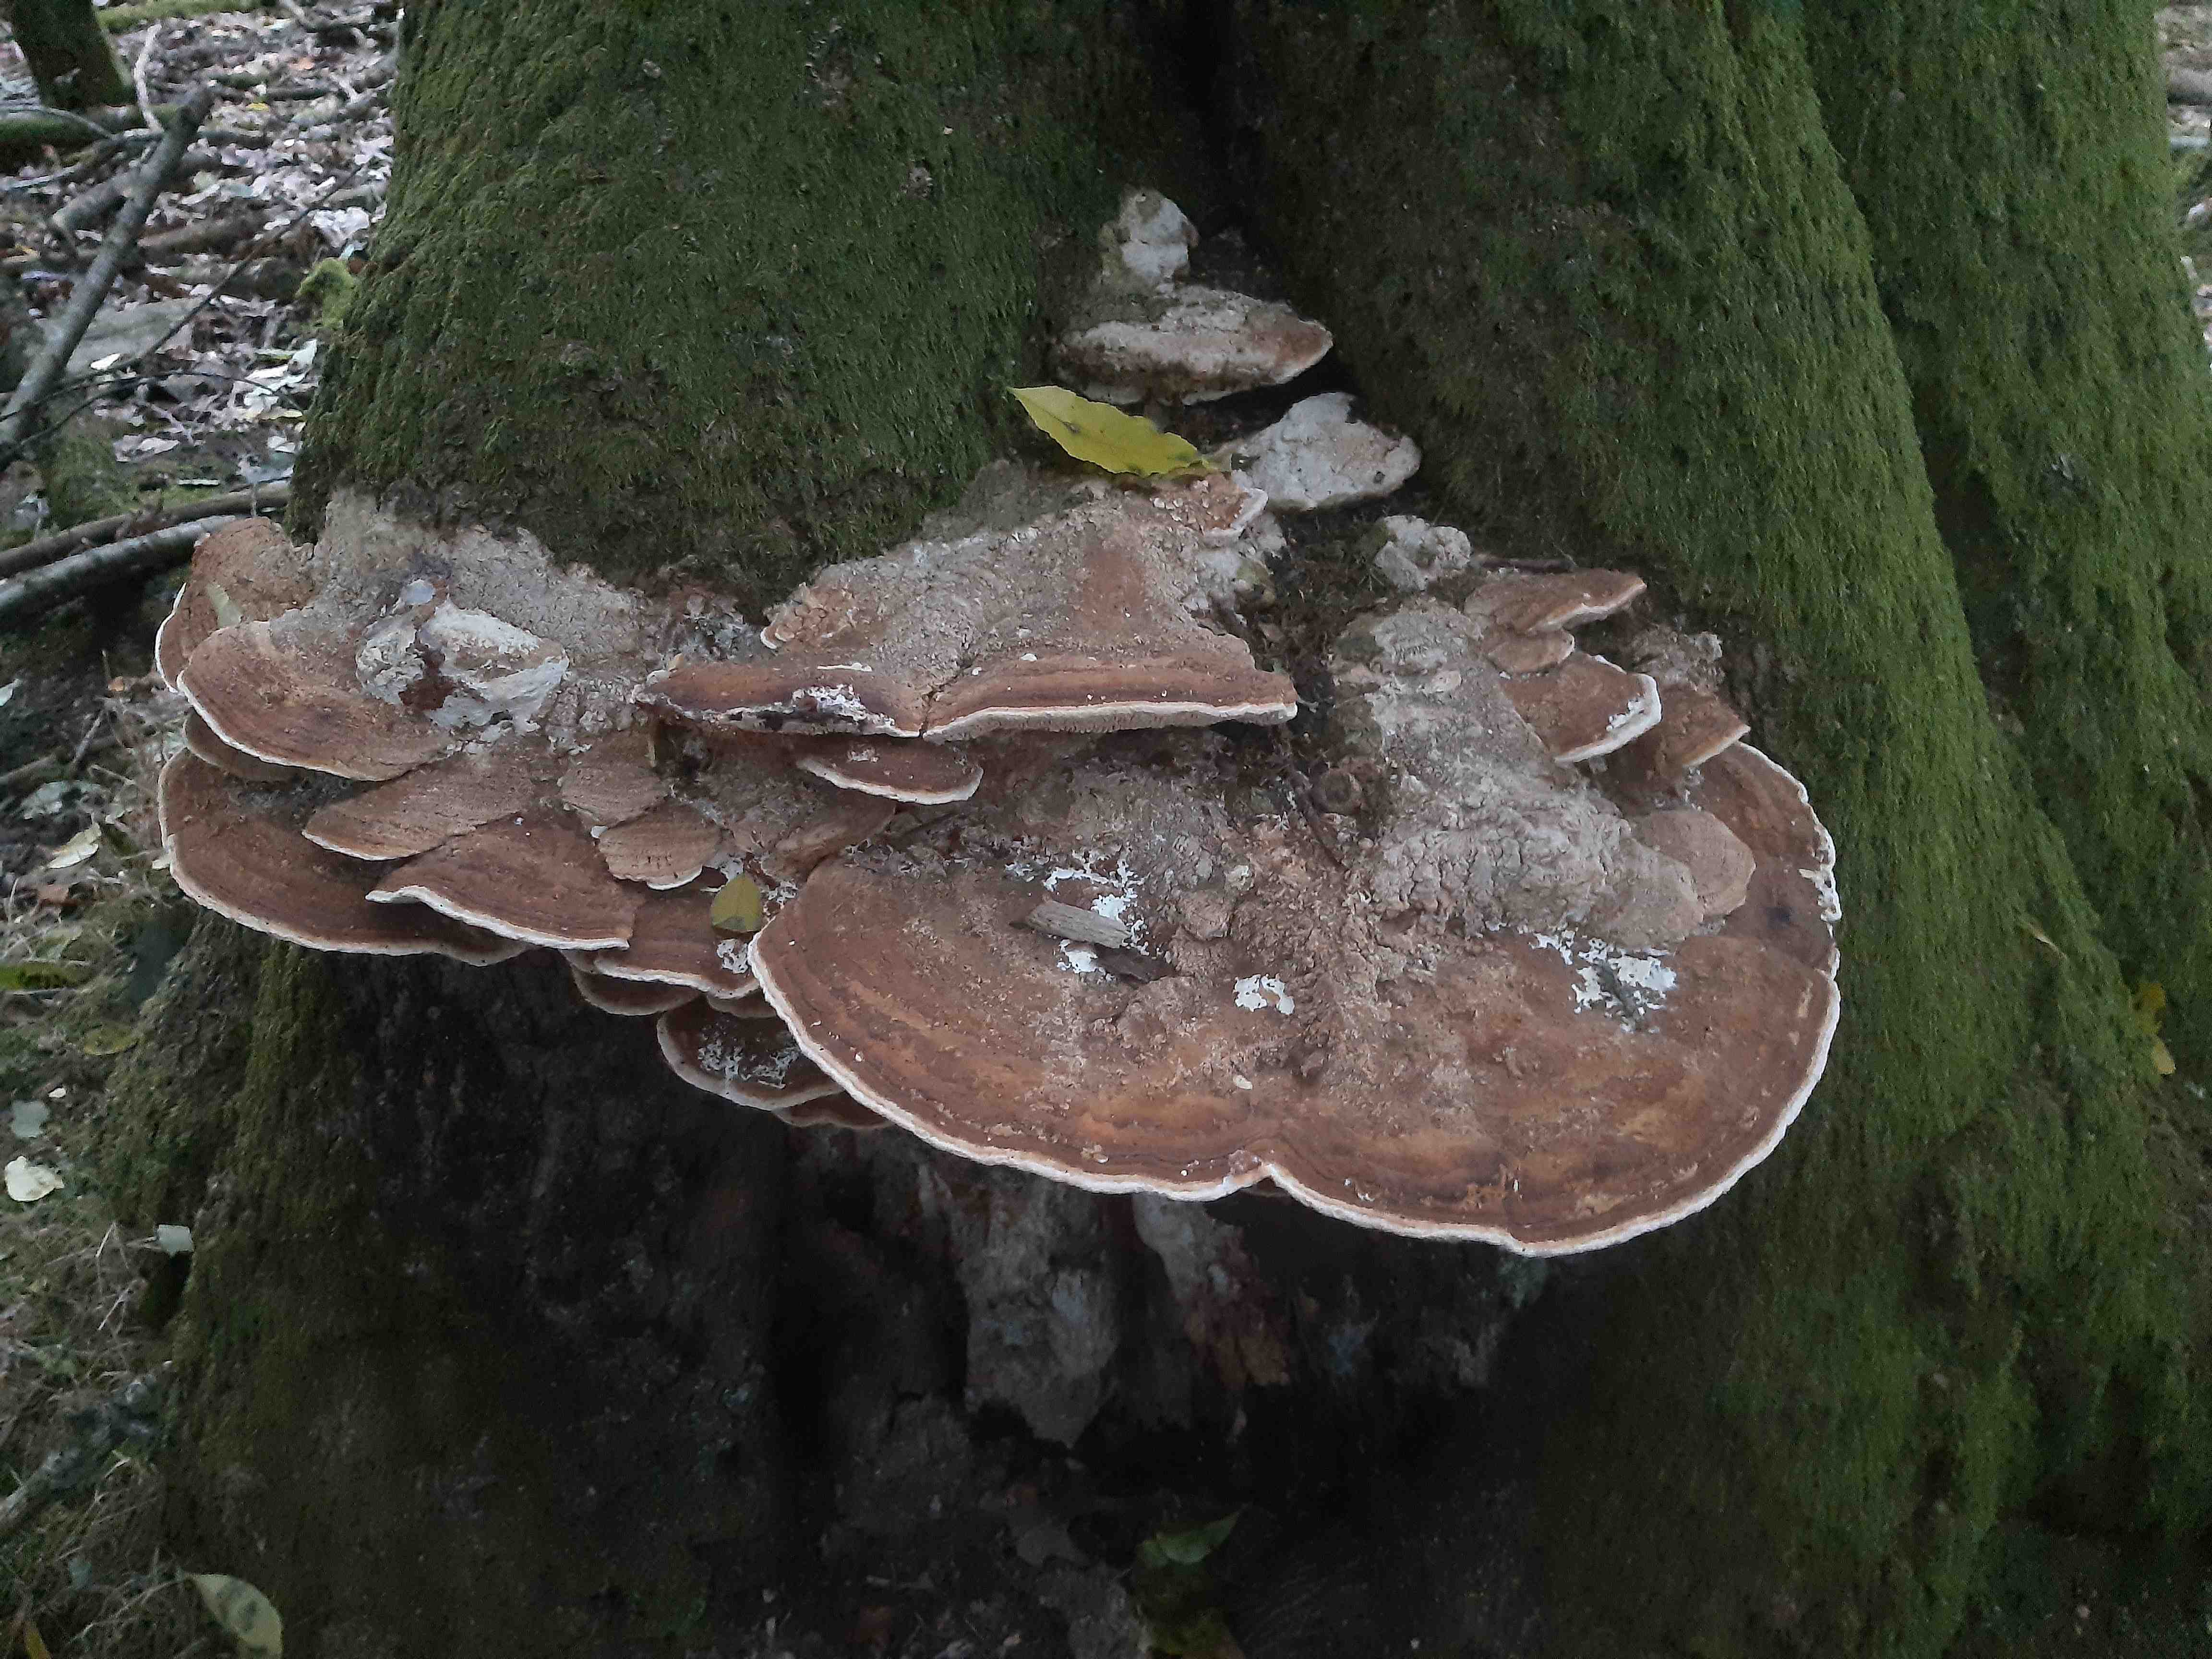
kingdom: Fungi
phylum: Basidiomycota
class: Agaricomycetes
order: Polyporales
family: Fomitopsidaceae
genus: Daedalea
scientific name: Daedalea quercina
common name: ege-labyrintsvamp
